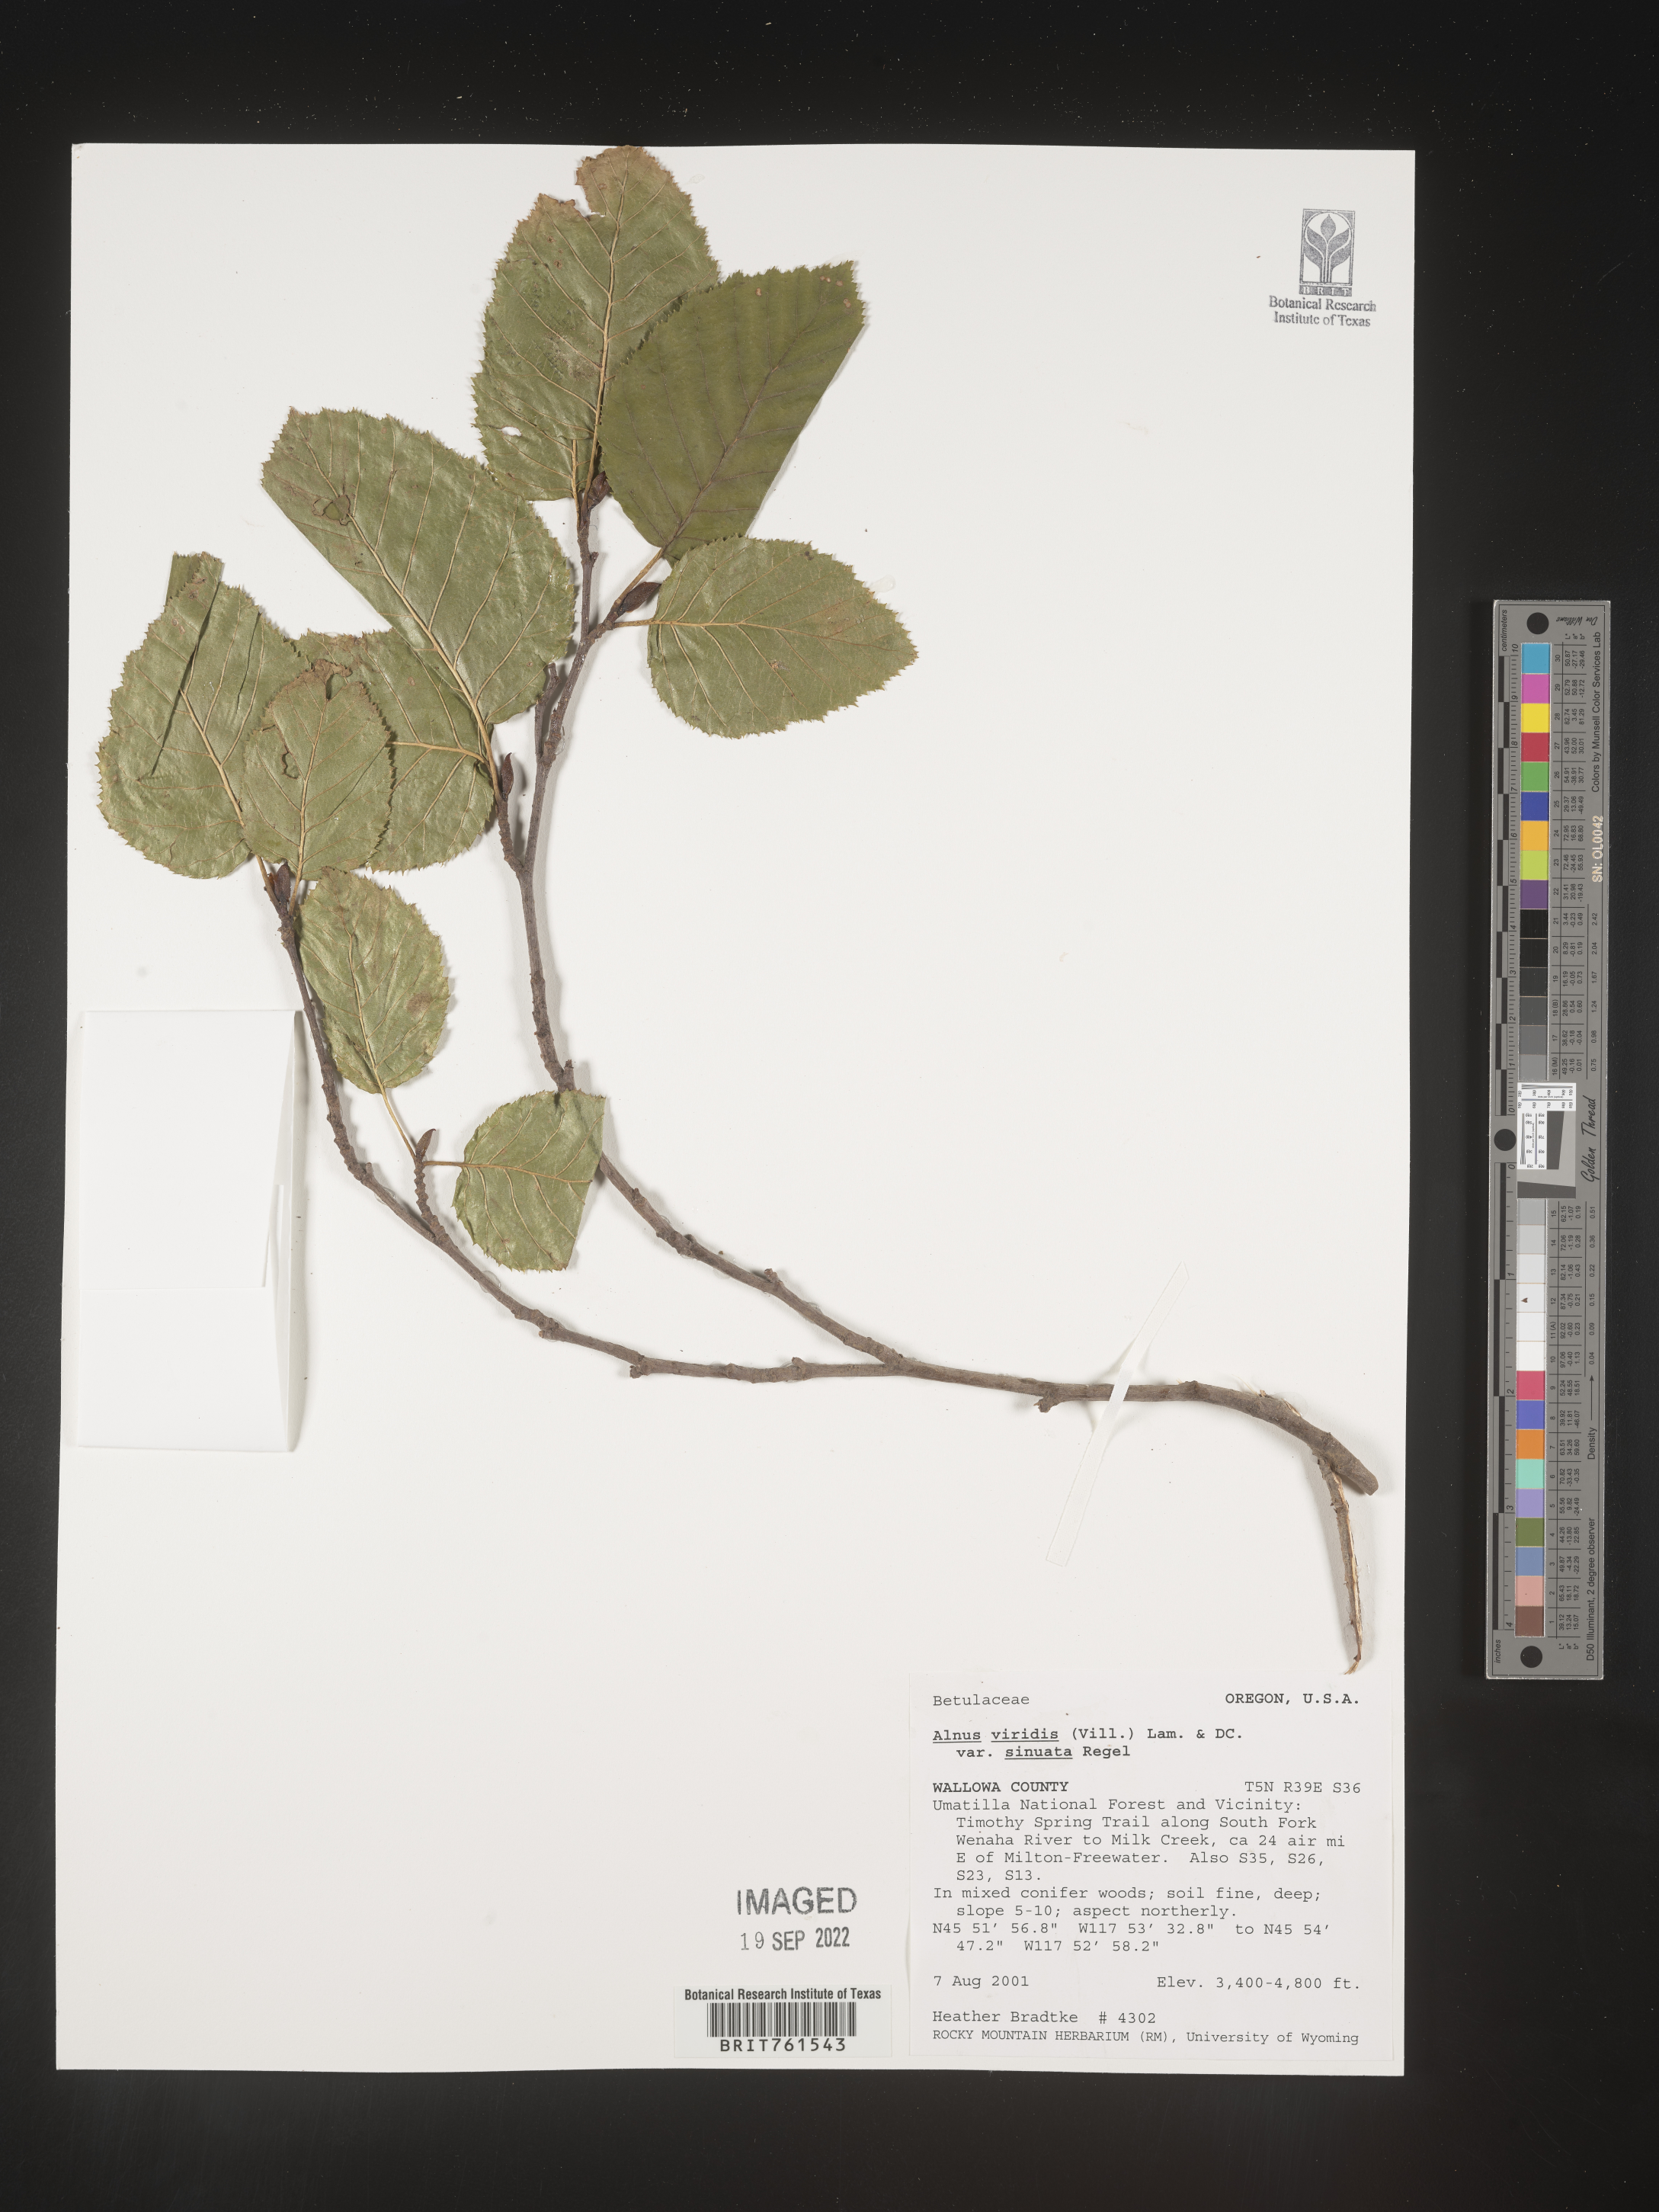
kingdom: Plantae
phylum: Tracheophyta
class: Magnoliopsida
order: Fagales
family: Betulaceae
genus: Alnus
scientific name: Alnus alnobetula
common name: Green alder
